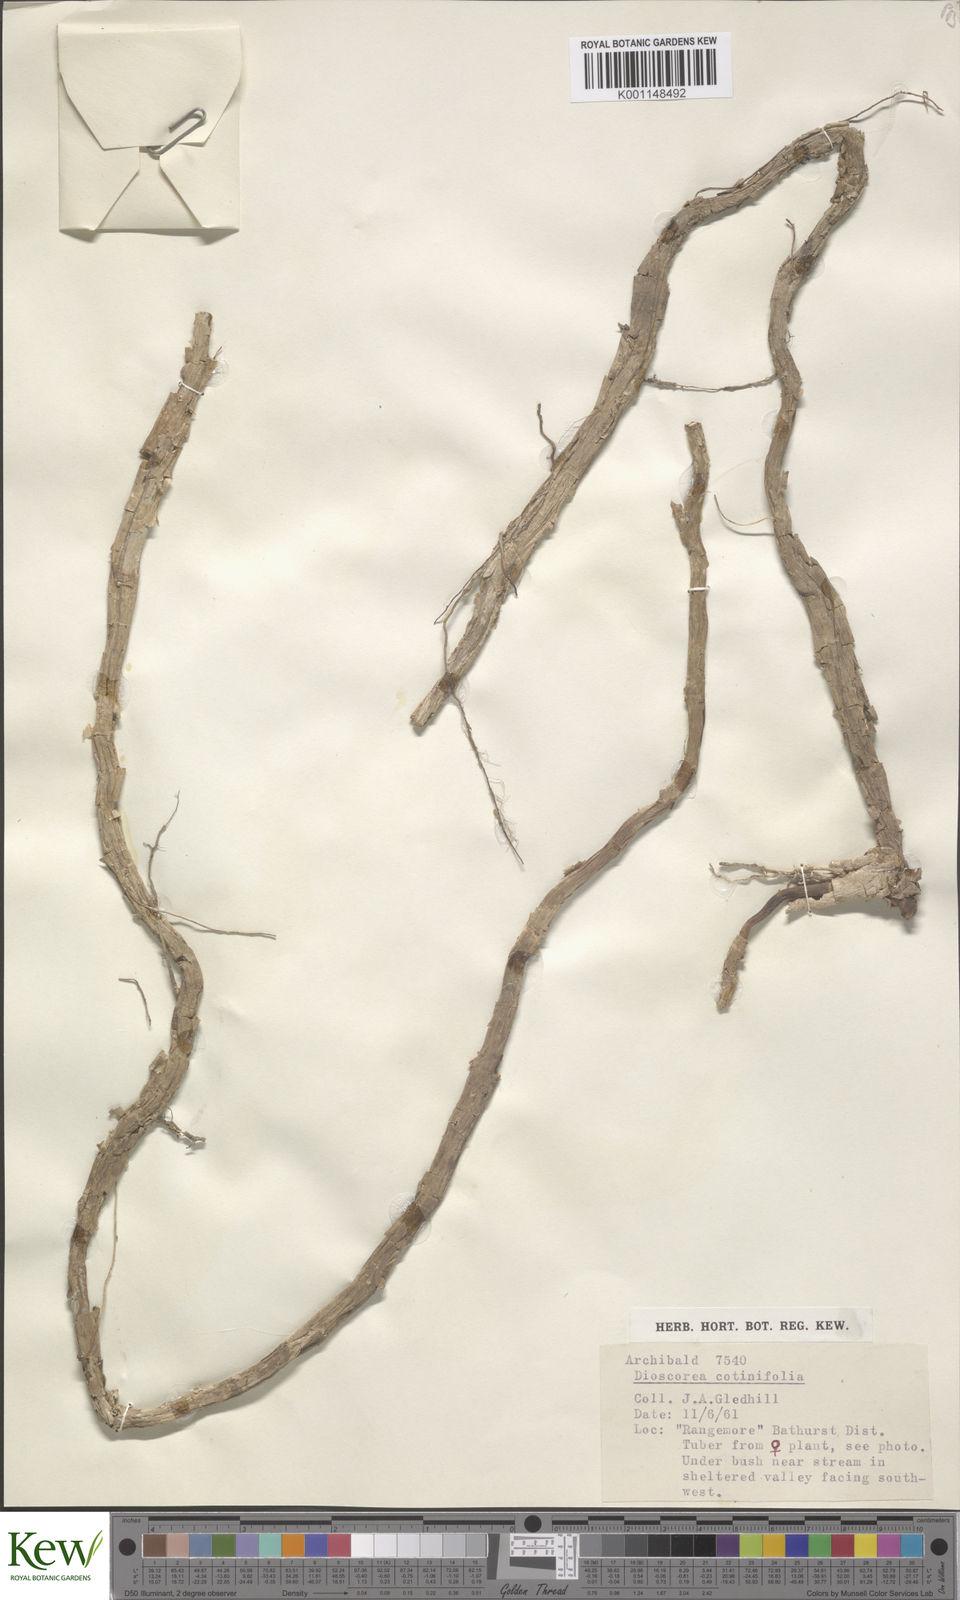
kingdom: Plantae
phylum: Tracheophyta
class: Liliopsida
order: Dioscoreales
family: Dioscoreaceae
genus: Dioscorea
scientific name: Dioscorea cotinifolia
